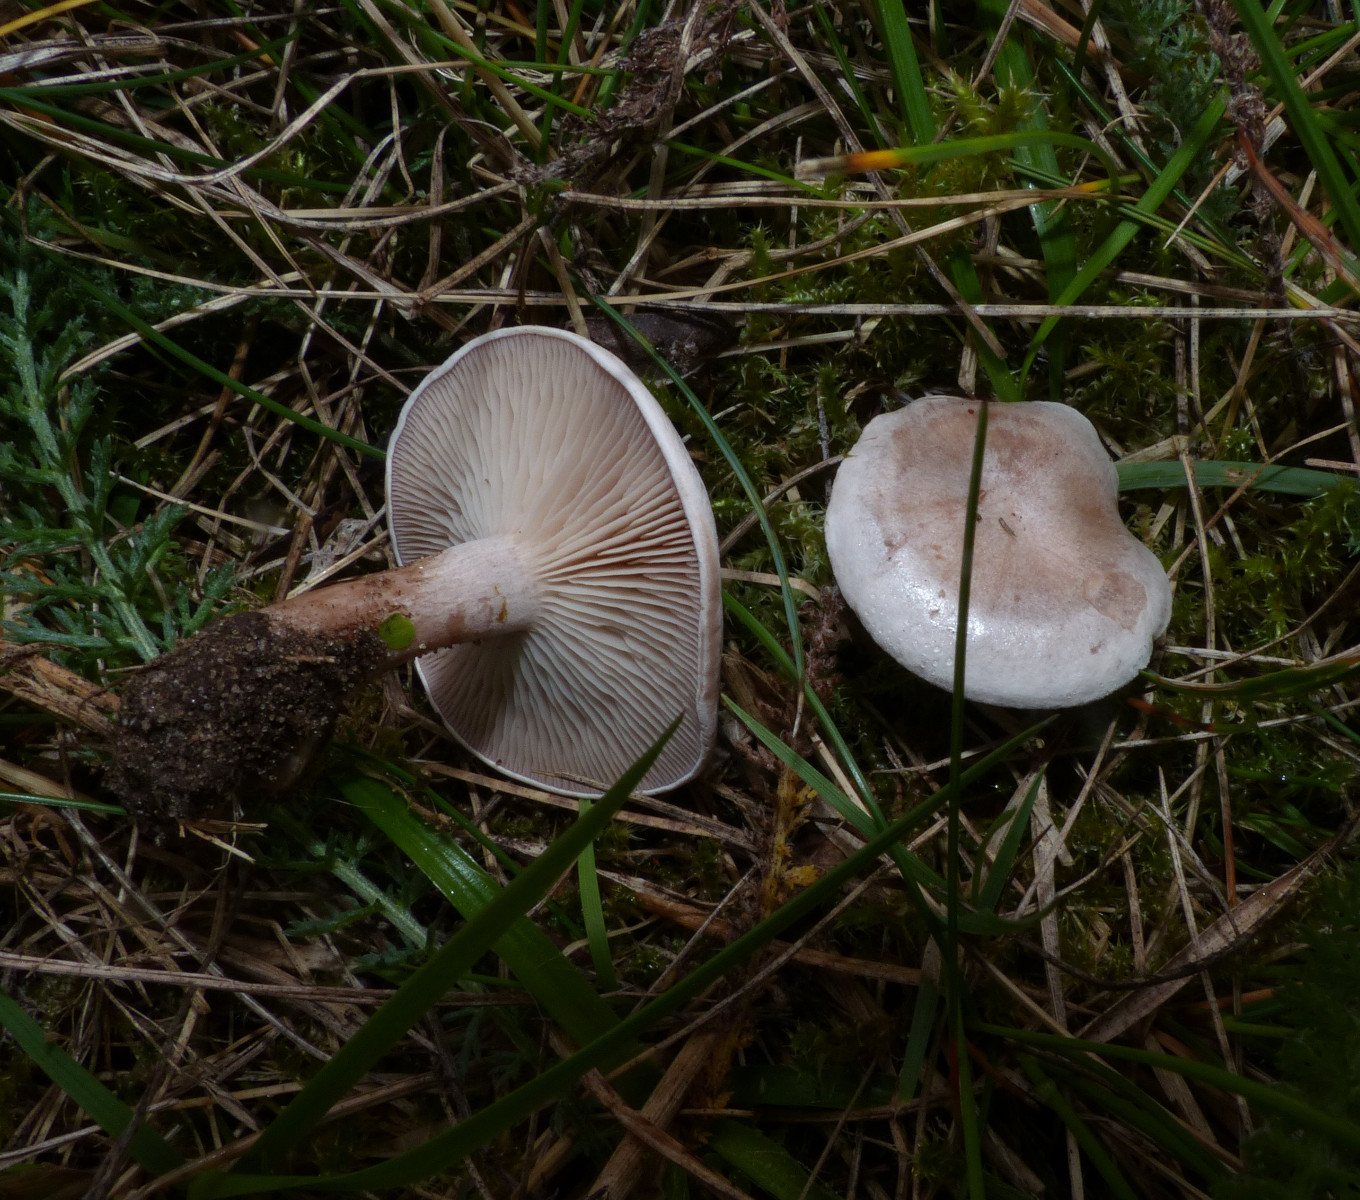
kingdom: Fungi
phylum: Basidiomycota
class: Agaricomycetes
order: Agaricales
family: Tricholomataceae
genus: Clitocybe
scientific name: Clitocybe rivulosa
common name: eng-tragthat
